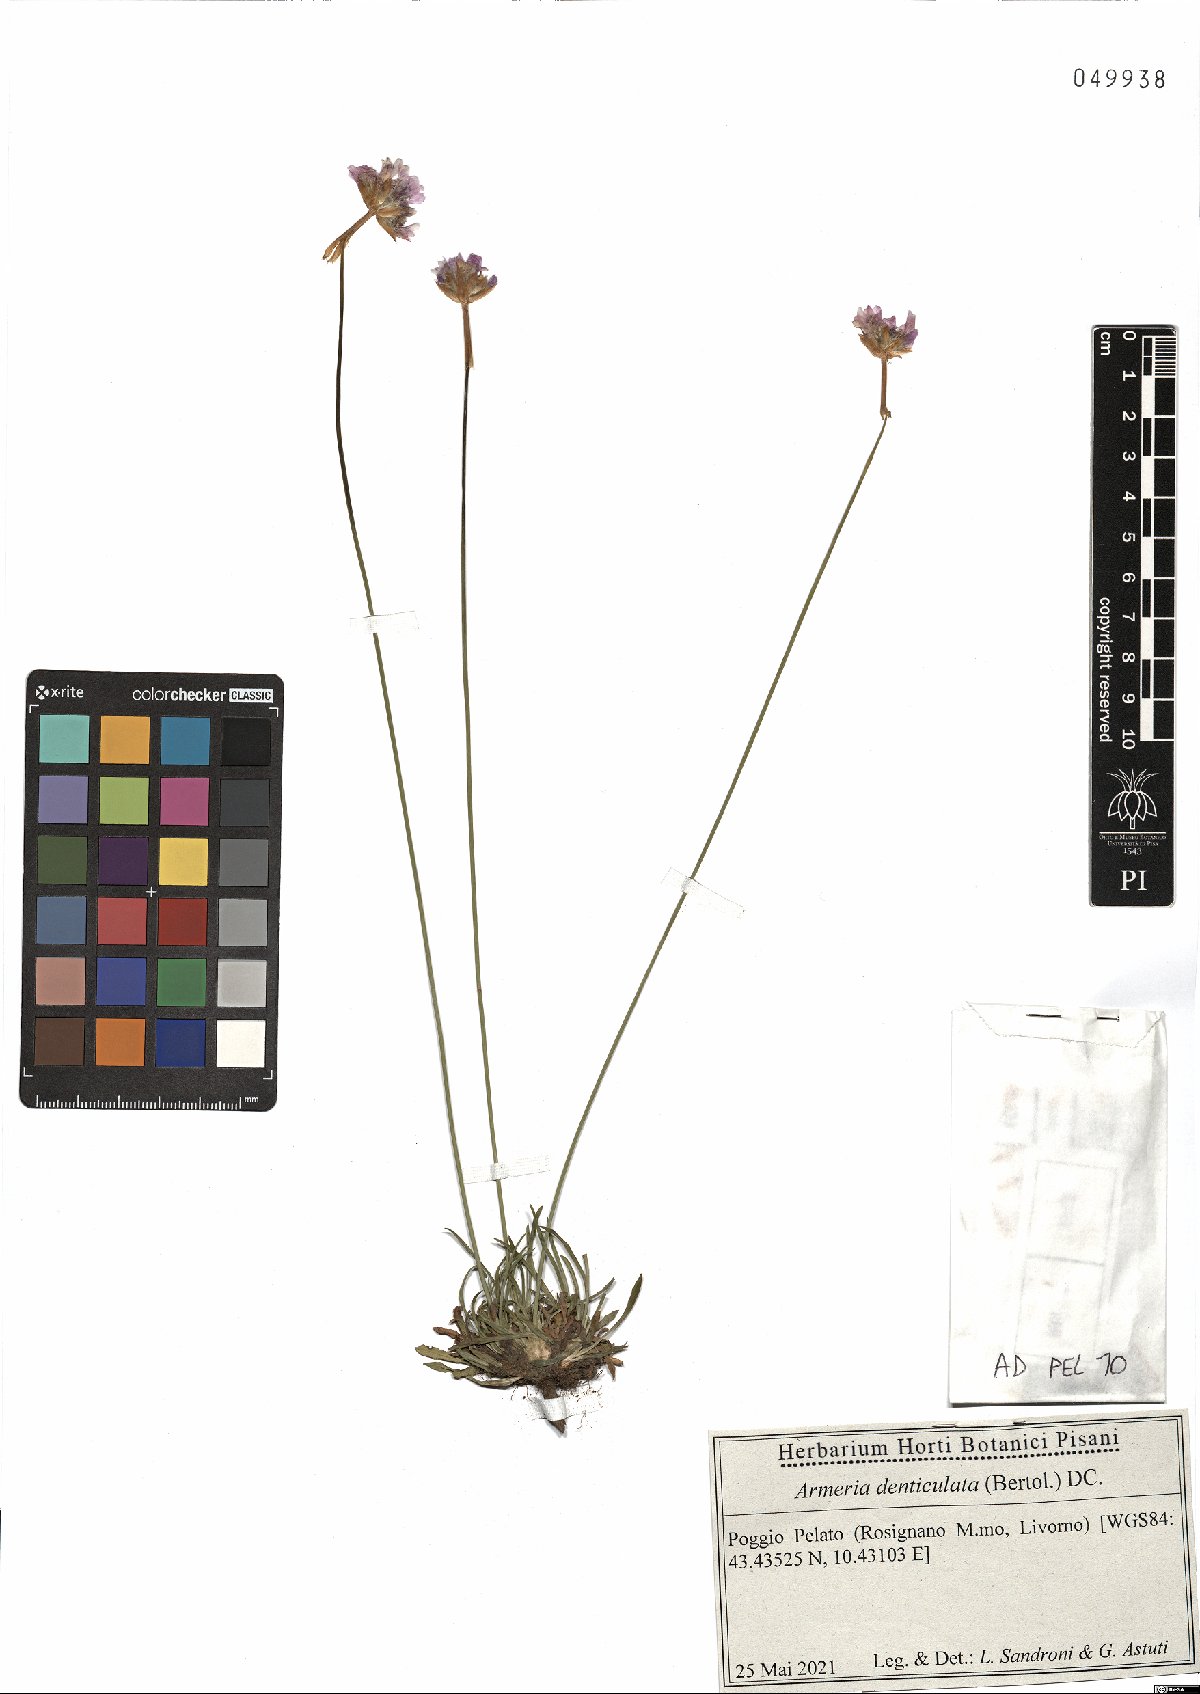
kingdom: Plantae
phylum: Tracheophyta
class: Magnoliopsida
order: Caryophyllales
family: Plumbaginaceae
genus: Armeria
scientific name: Armeria denticulata
